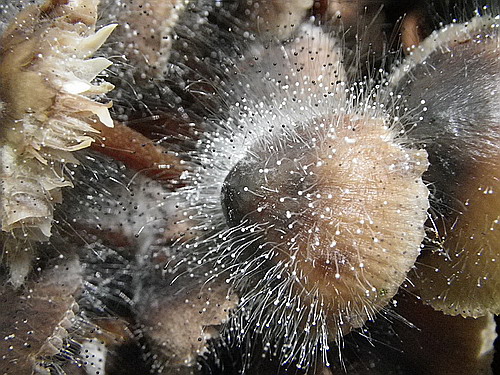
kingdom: Fungi
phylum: Mucoromycota
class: Mucoromycetes
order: Mucorales
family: Phycomycetaceae
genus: Spinellus
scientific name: Spinellus fusiger
